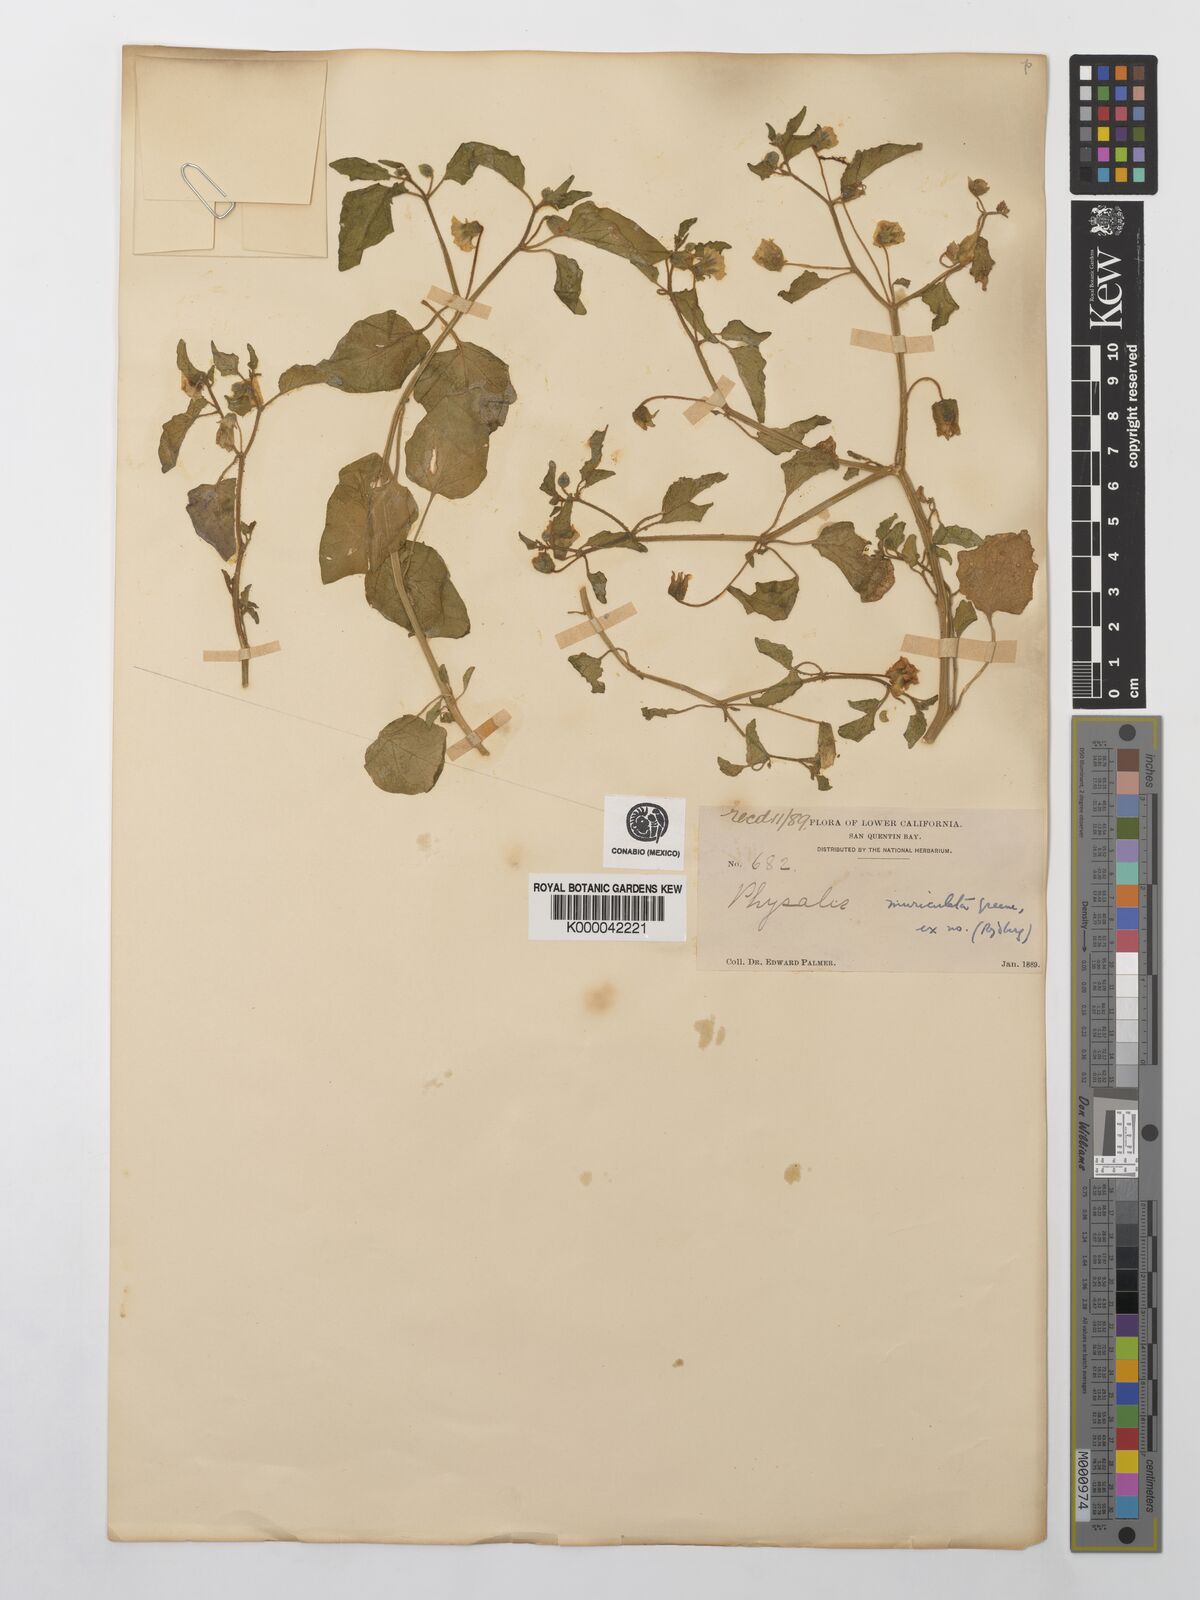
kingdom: Plantae
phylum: Tracheophyta
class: Magnoliopsida
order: Solanales
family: Solanaceae
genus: Physalis
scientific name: Physalis crassifolia
